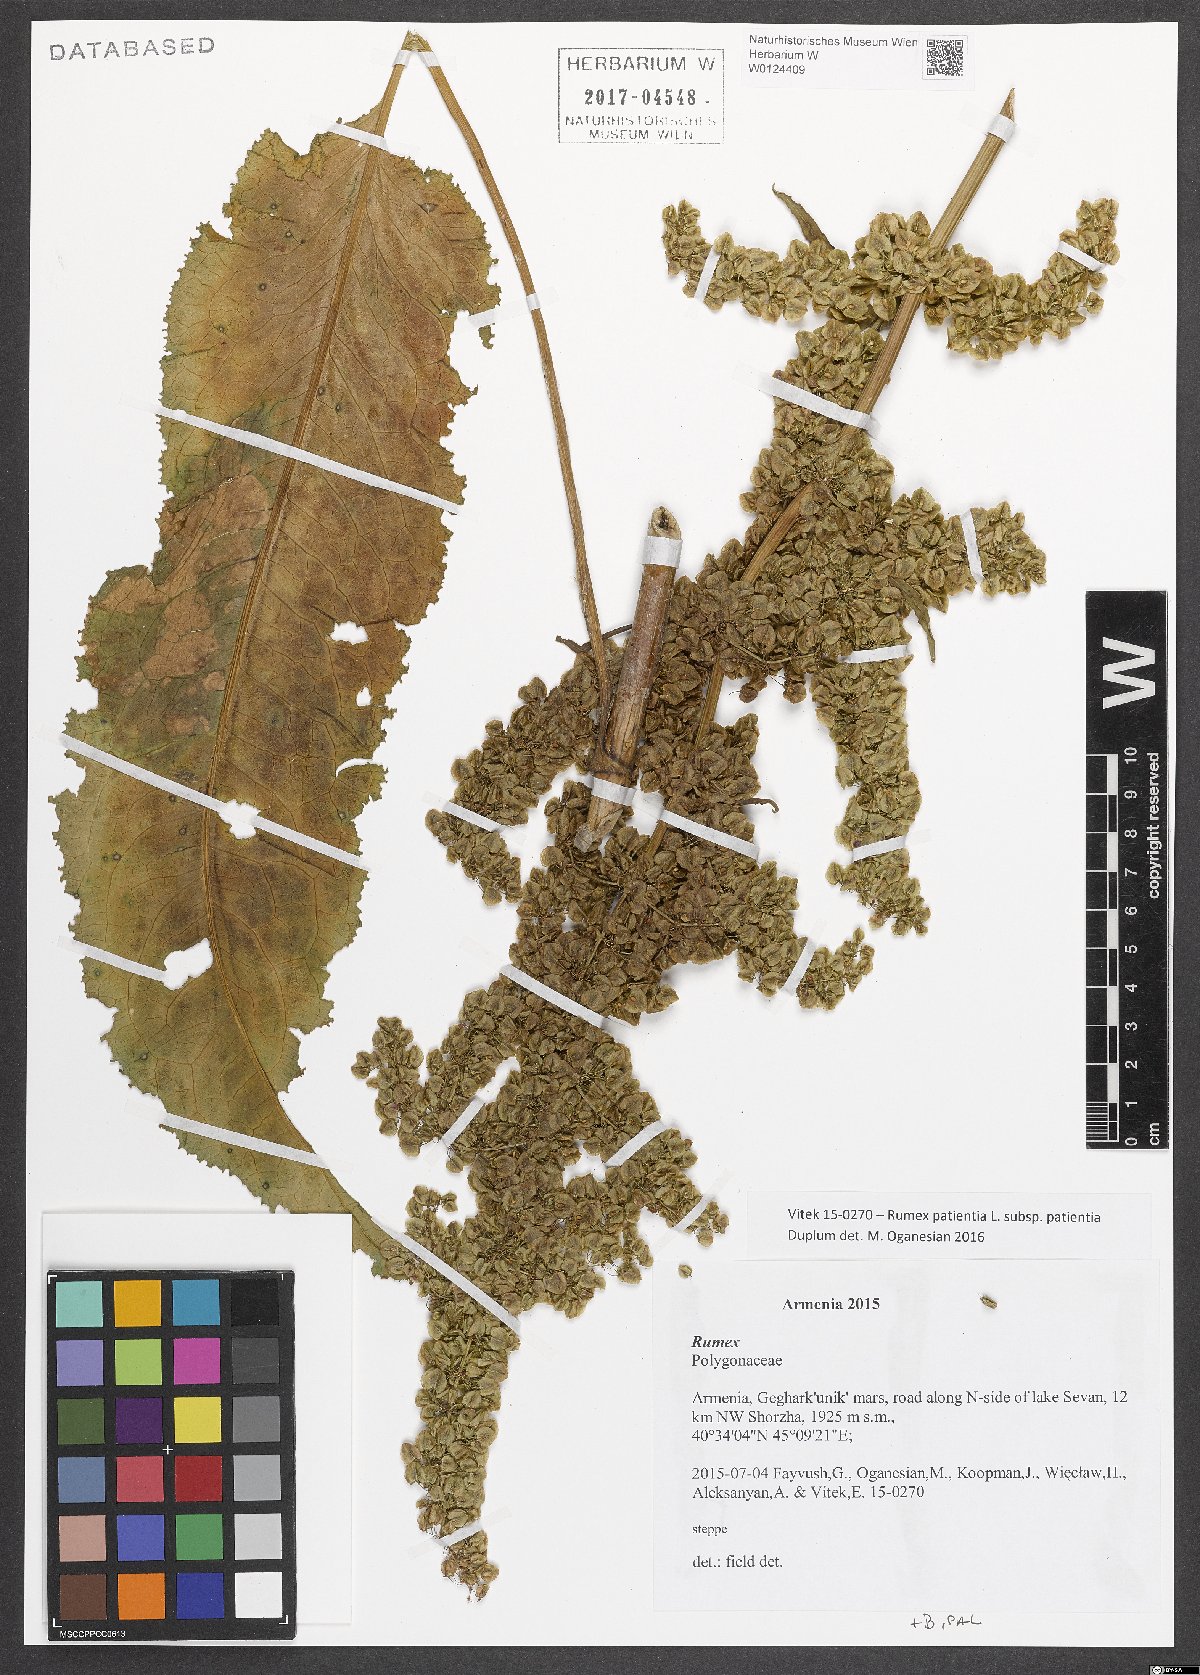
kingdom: Plantae
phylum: Tracheophyta
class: Magnoliopsida
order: Caryophyllales
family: Polygonaceae
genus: Rumex
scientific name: Rumex patientia
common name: Patience dock
